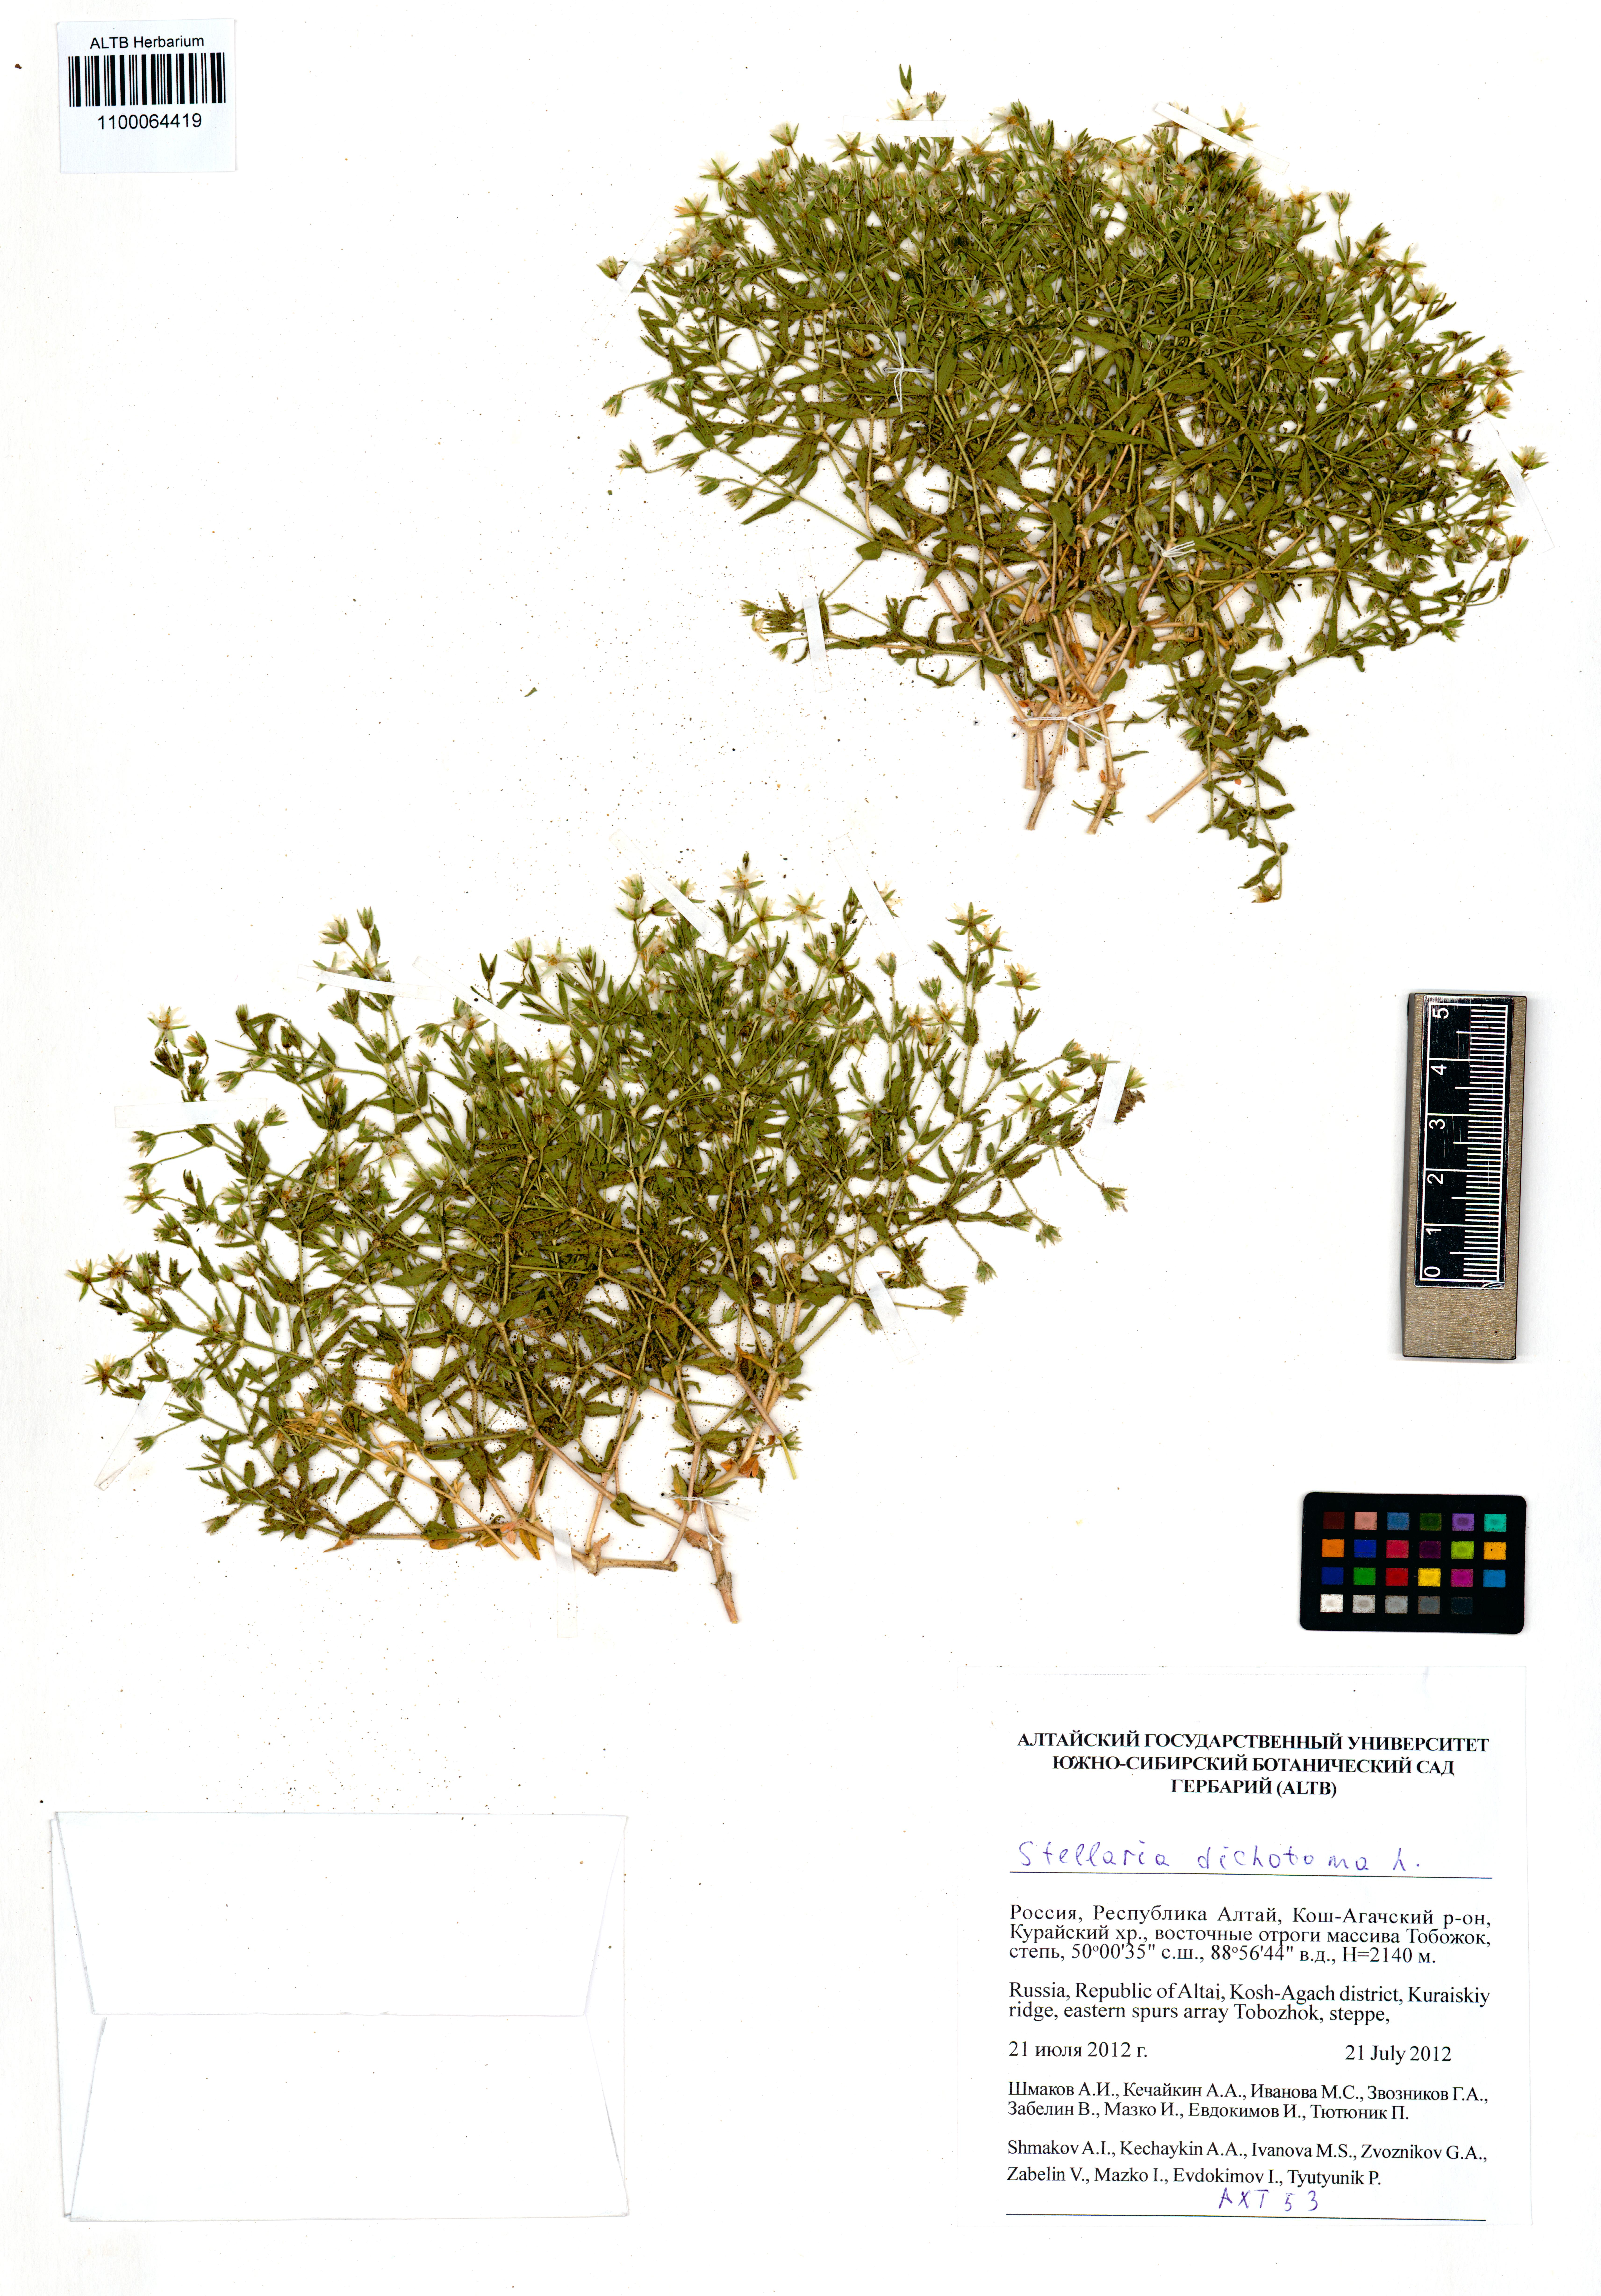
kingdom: Plantae
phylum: Tracheophyta
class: Magnoliopsida
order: Caryophyllales
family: Caryophyllaceae
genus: Mesostemma
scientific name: Mesostemma dichotomum
